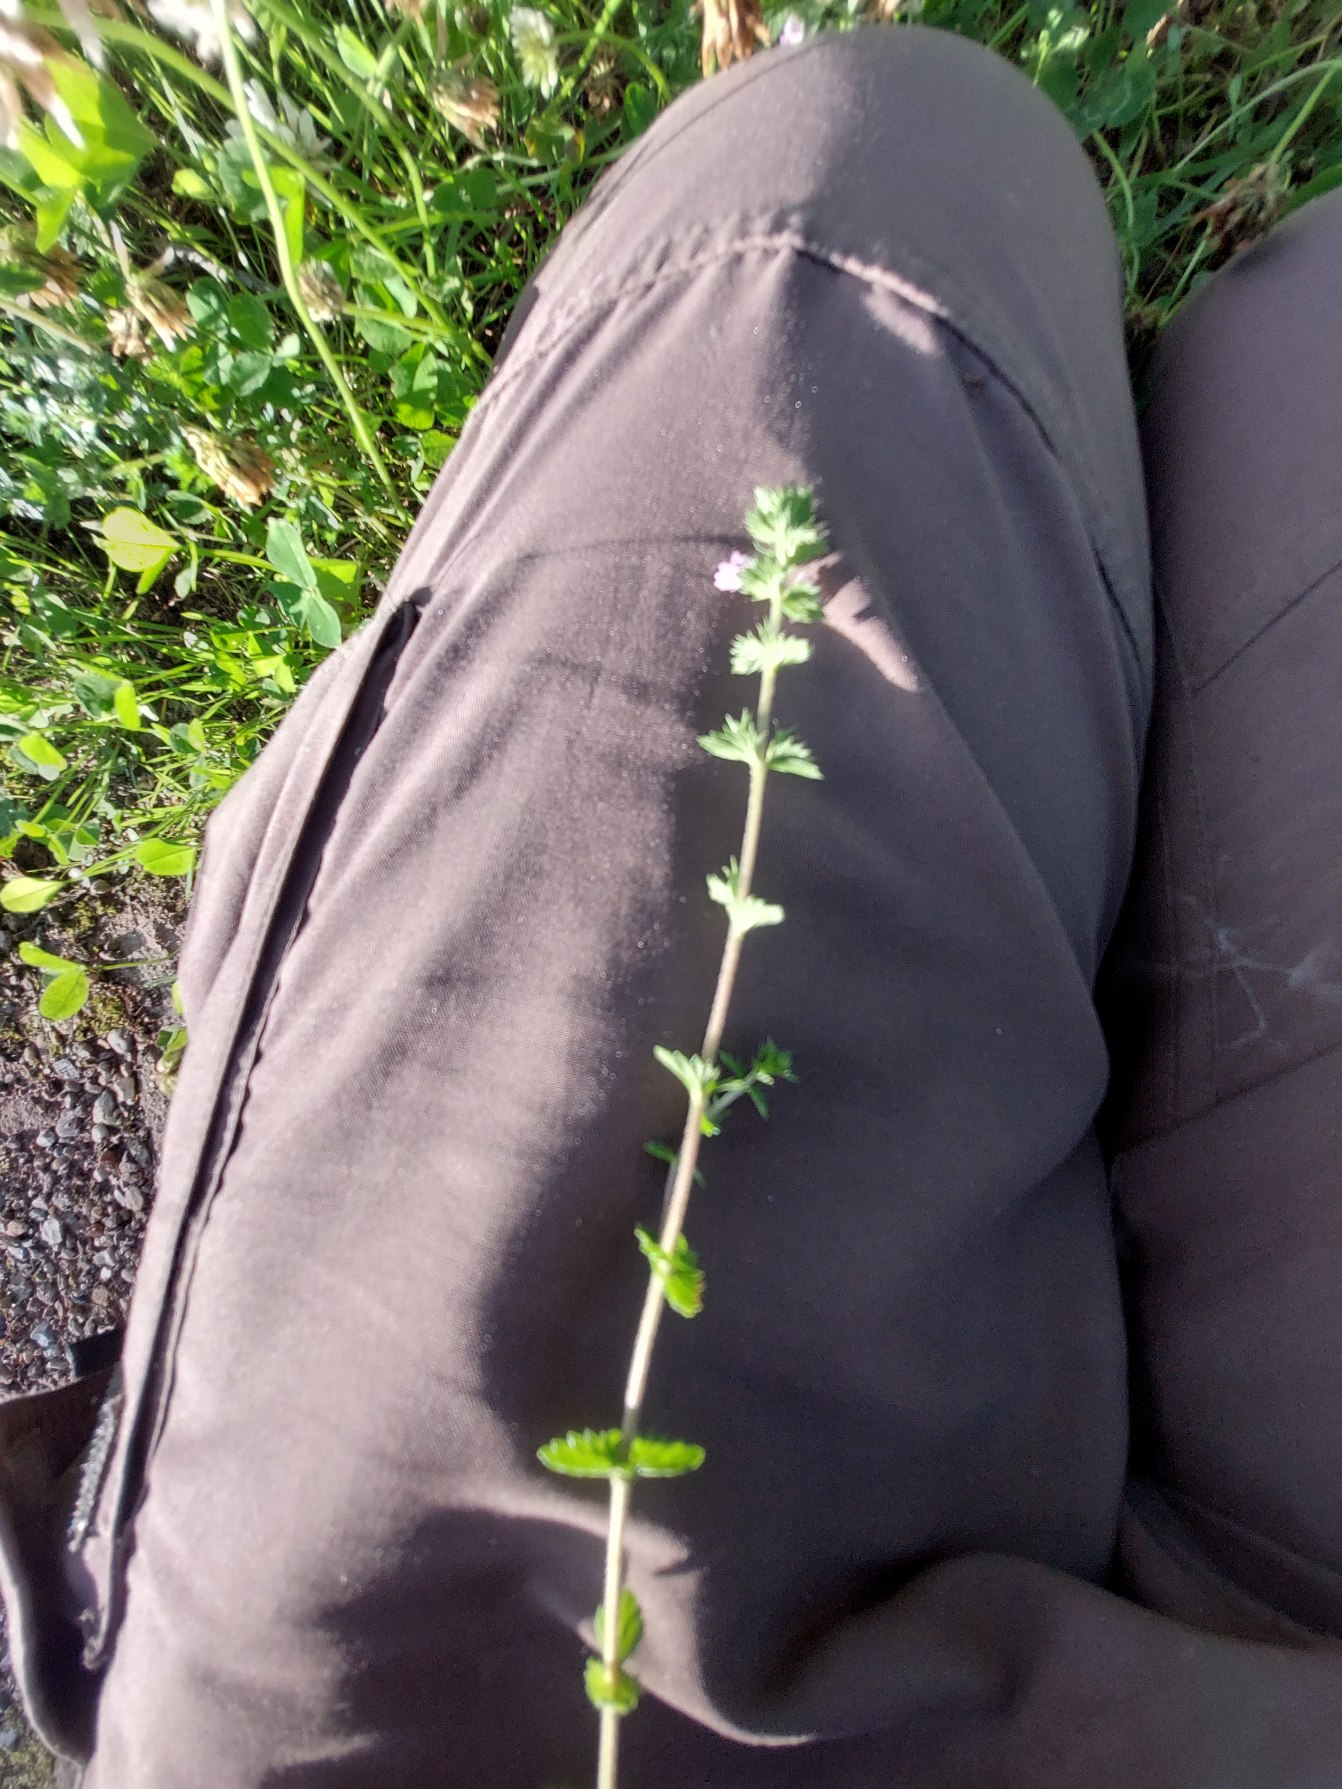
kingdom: Plantae
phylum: Tracheophyta
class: Magnoliopsida
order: Lamiales
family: Orobanchaceae
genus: Euphrasia
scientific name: Euphrasia stricta
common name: Spids øjentrøst
